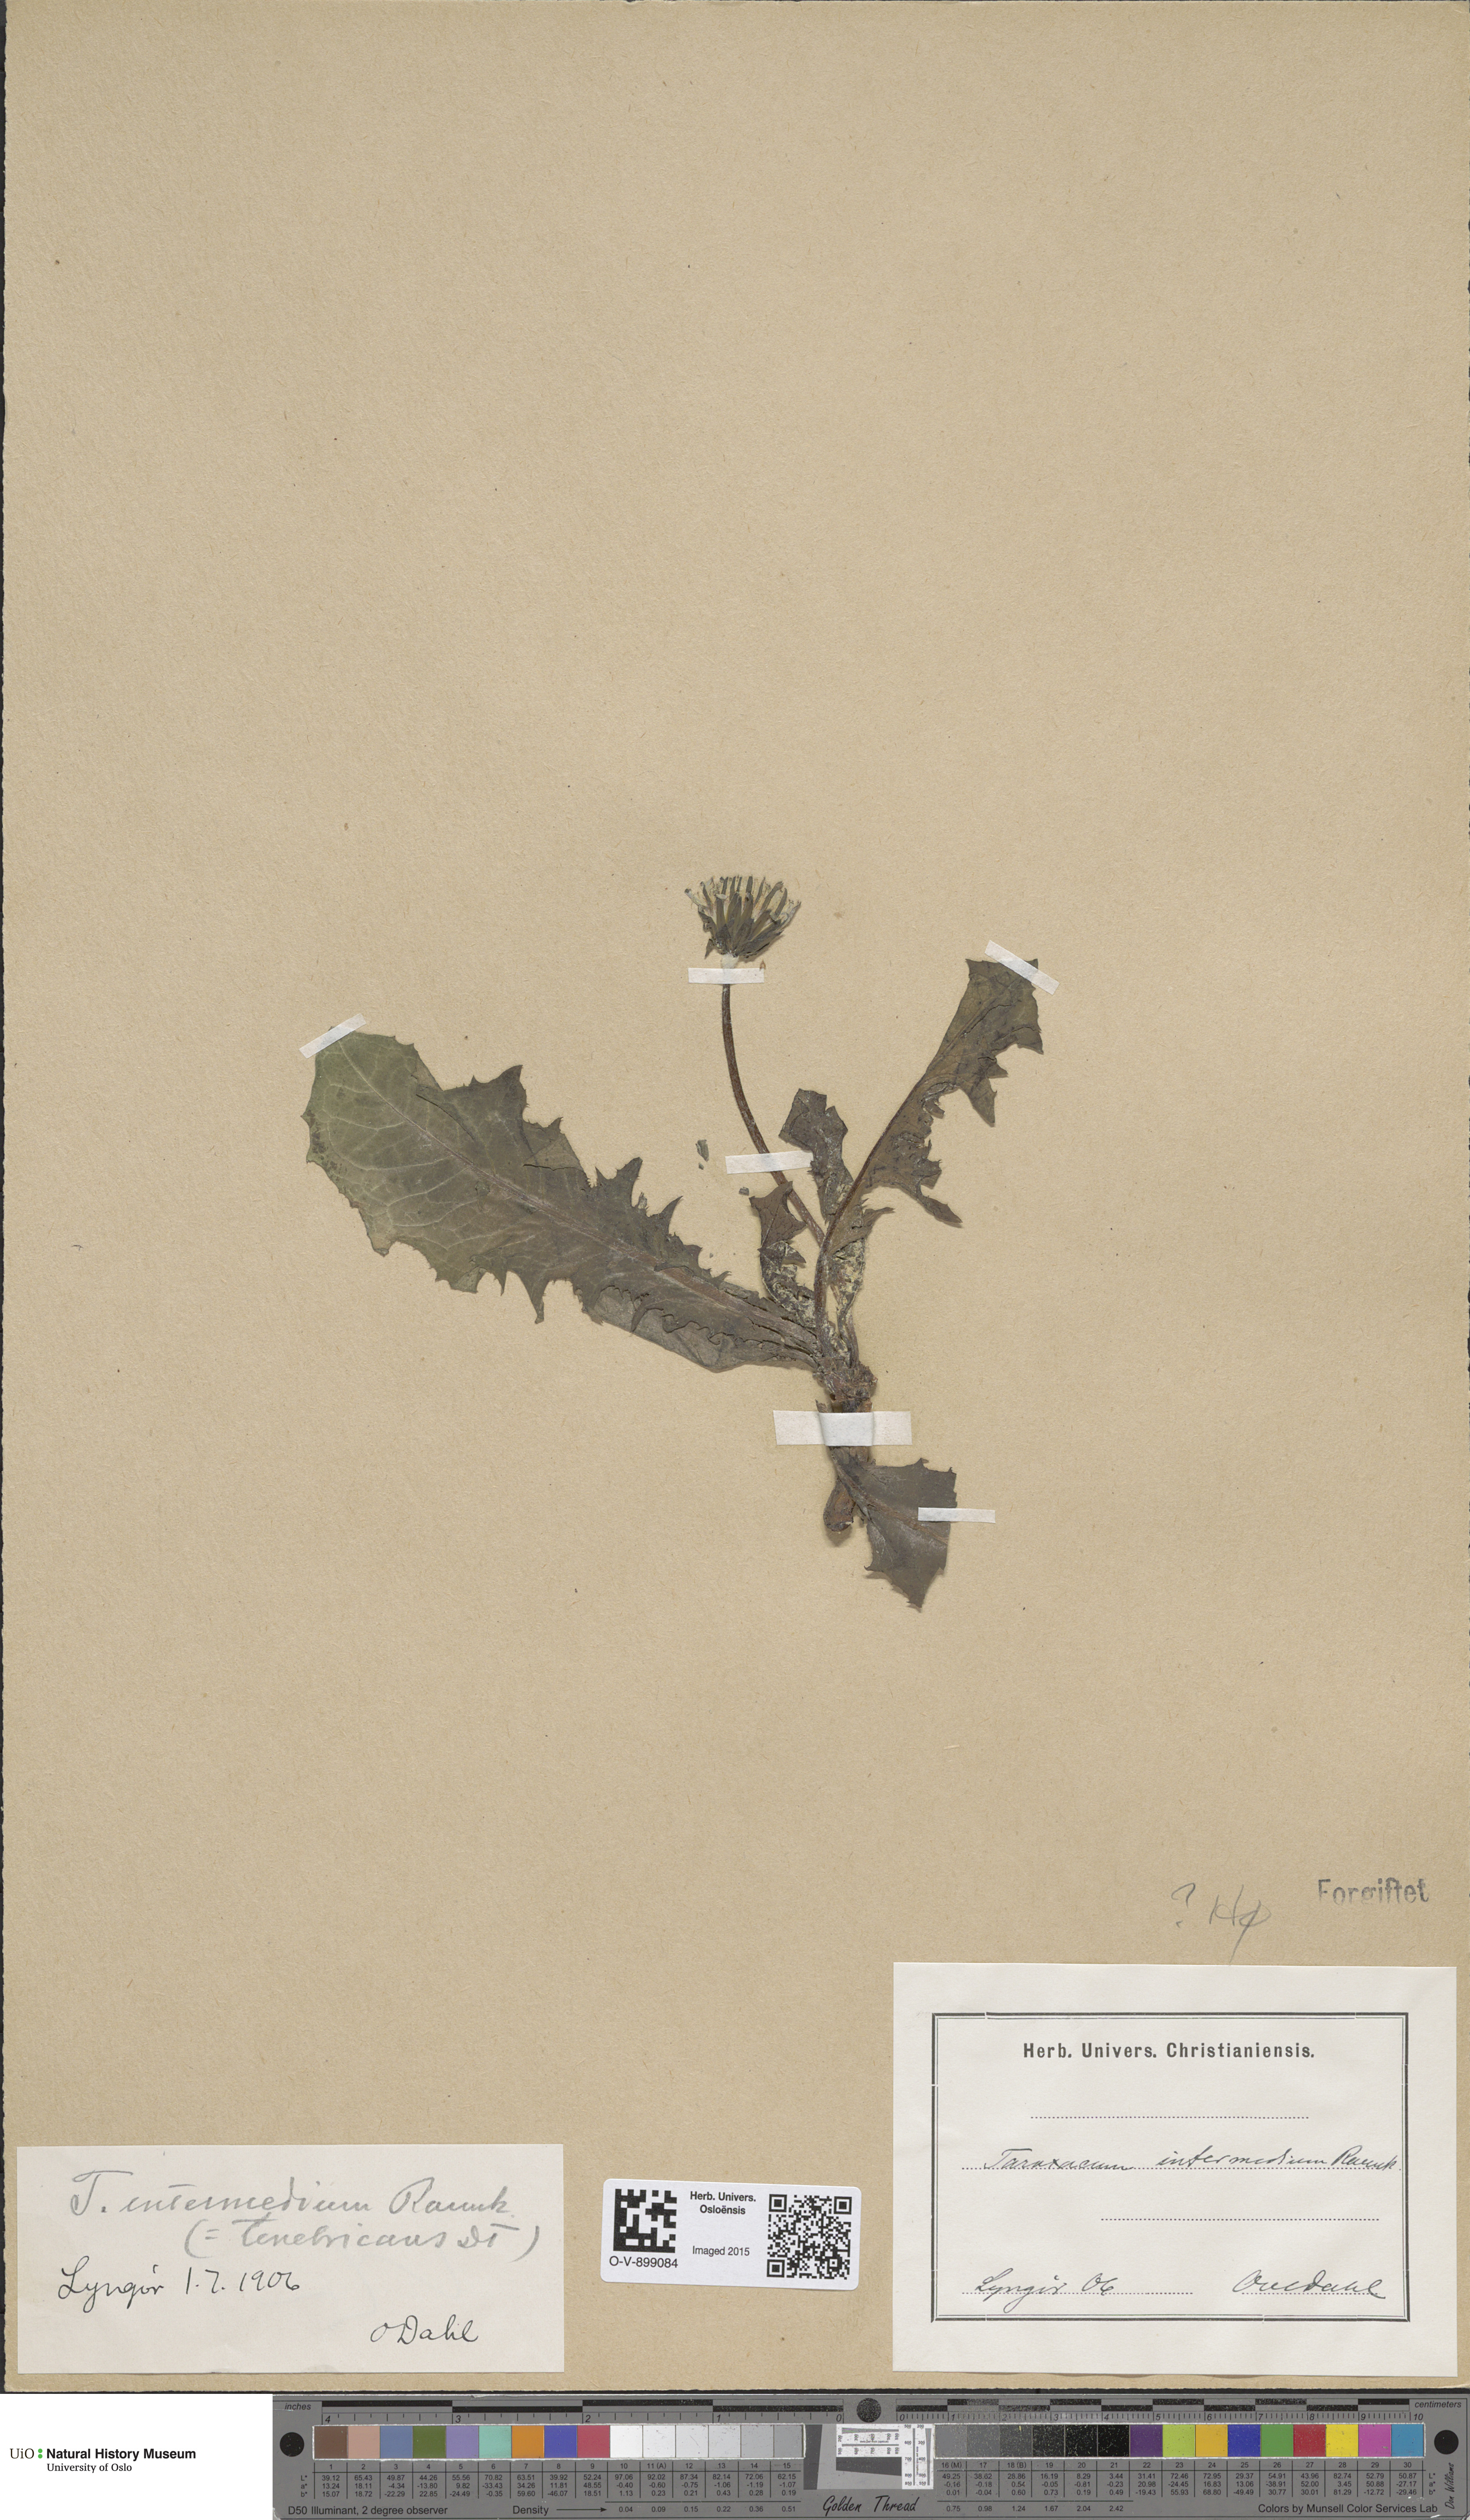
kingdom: Plantae
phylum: Tracheophyta
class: Magnoliopsida
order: Asterales
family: Asteraceae
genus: Taraxacum
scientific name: Taraxacum intermedium
